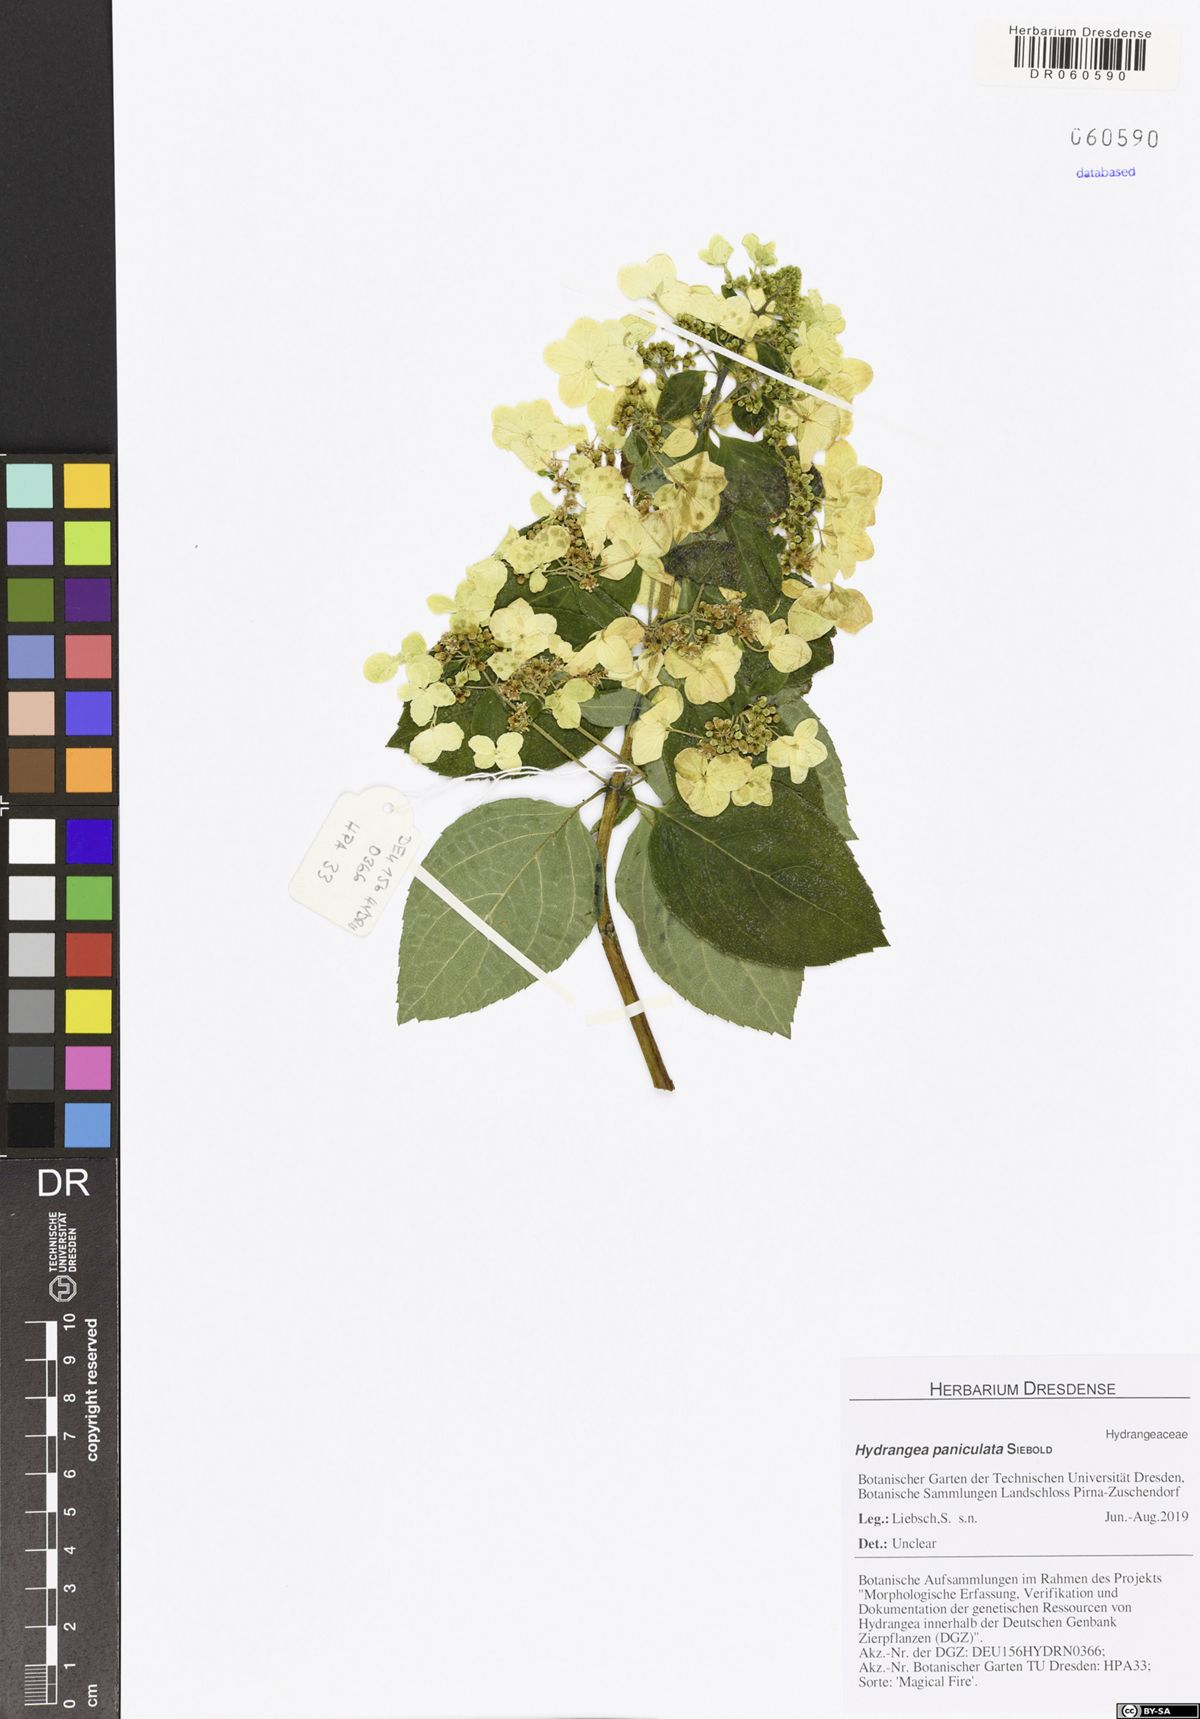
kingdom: Plantae
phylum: Tracheophyta
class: Magnoliopsida
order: Cornales
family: Hydrangeaceae
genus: Hydrangea
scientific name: Hydrangea paniculata
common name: Panicled hydrangea
